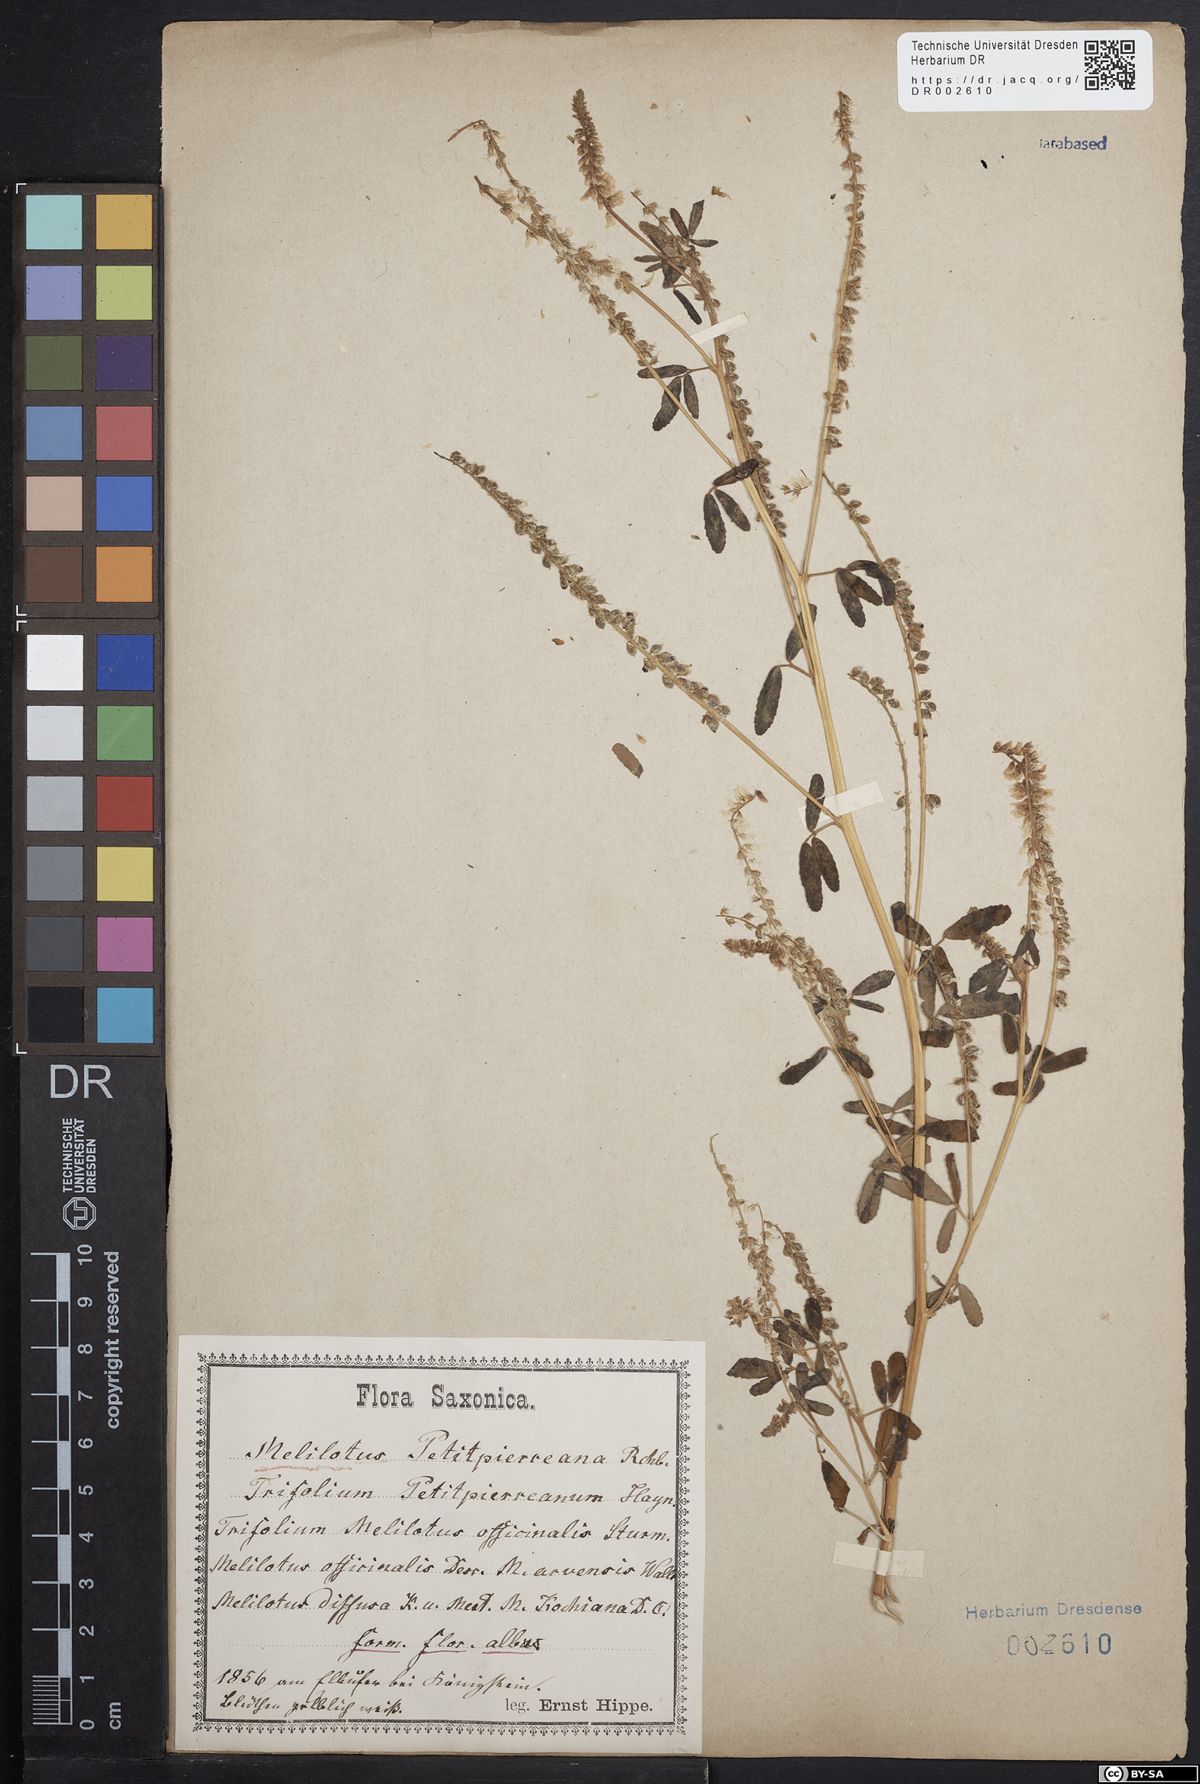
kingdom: Plantae
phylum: Tracheophyta
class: Magnoliopsida
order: Fabales
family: Fabaceae
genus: Melilotus
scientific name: Melilotus officinalis
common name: Sweetclover
